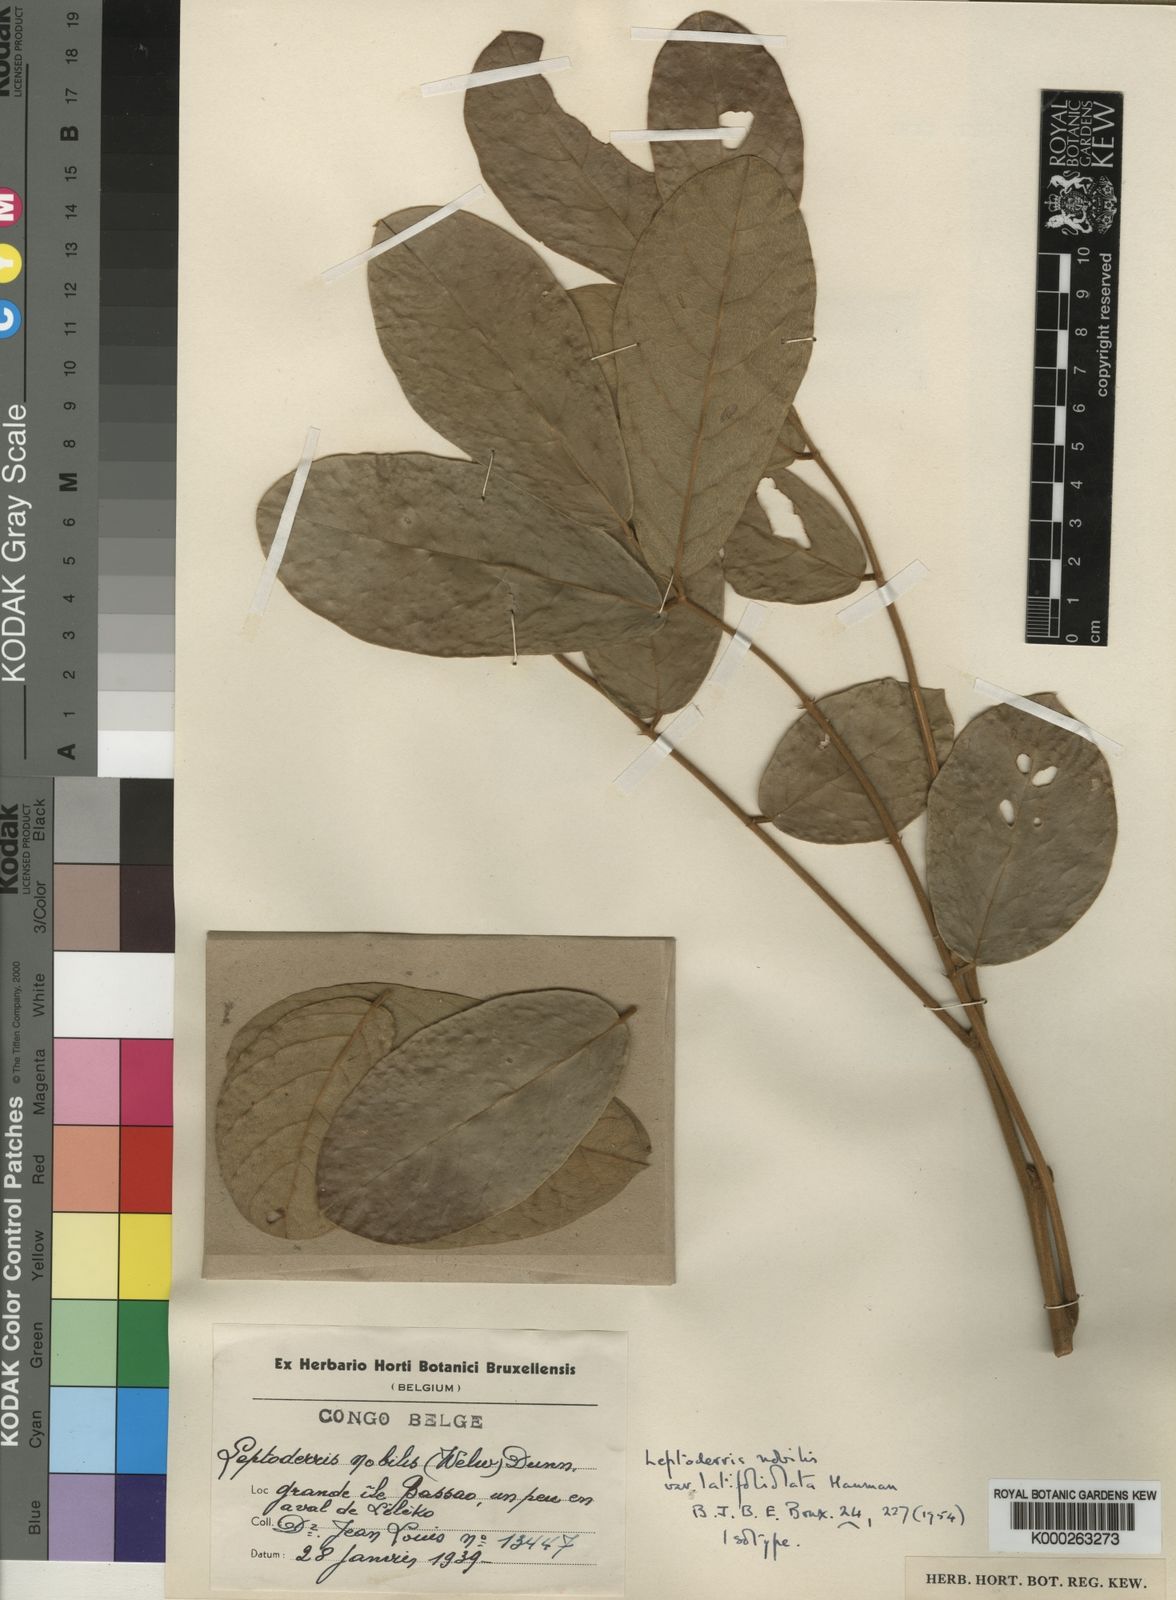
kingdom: Plantae
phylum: Tracheophyta
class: Magnoliopsida
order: Fabales
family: Fabaceae
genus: Leptoderris
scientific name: Leptoderris nobilis
